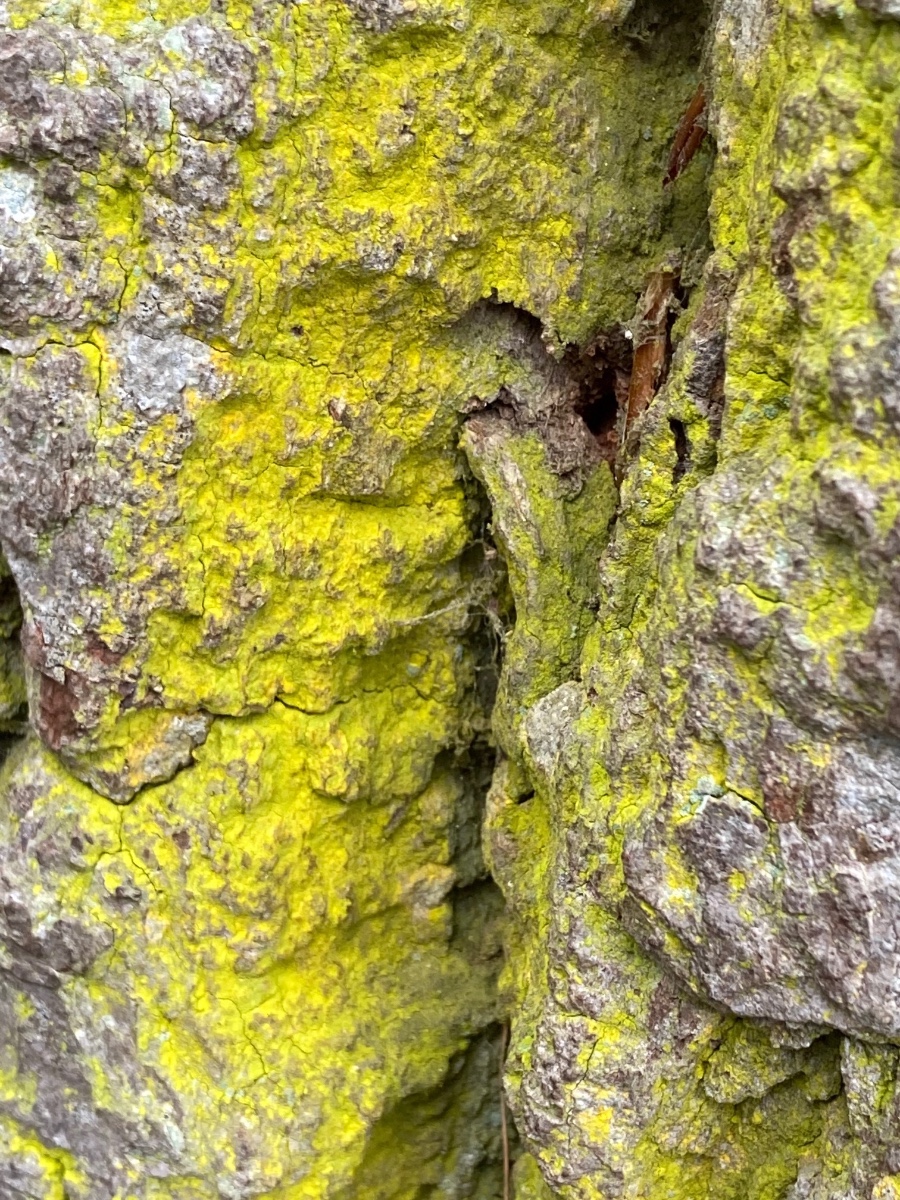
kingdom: Fungi
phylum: Ascomycota
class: Arthoniomycetes
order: Arthoniales
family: Chrysotrichaceae
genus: Chrysothrix
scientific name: Chrysothrix candelaris
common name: gul støvlav
